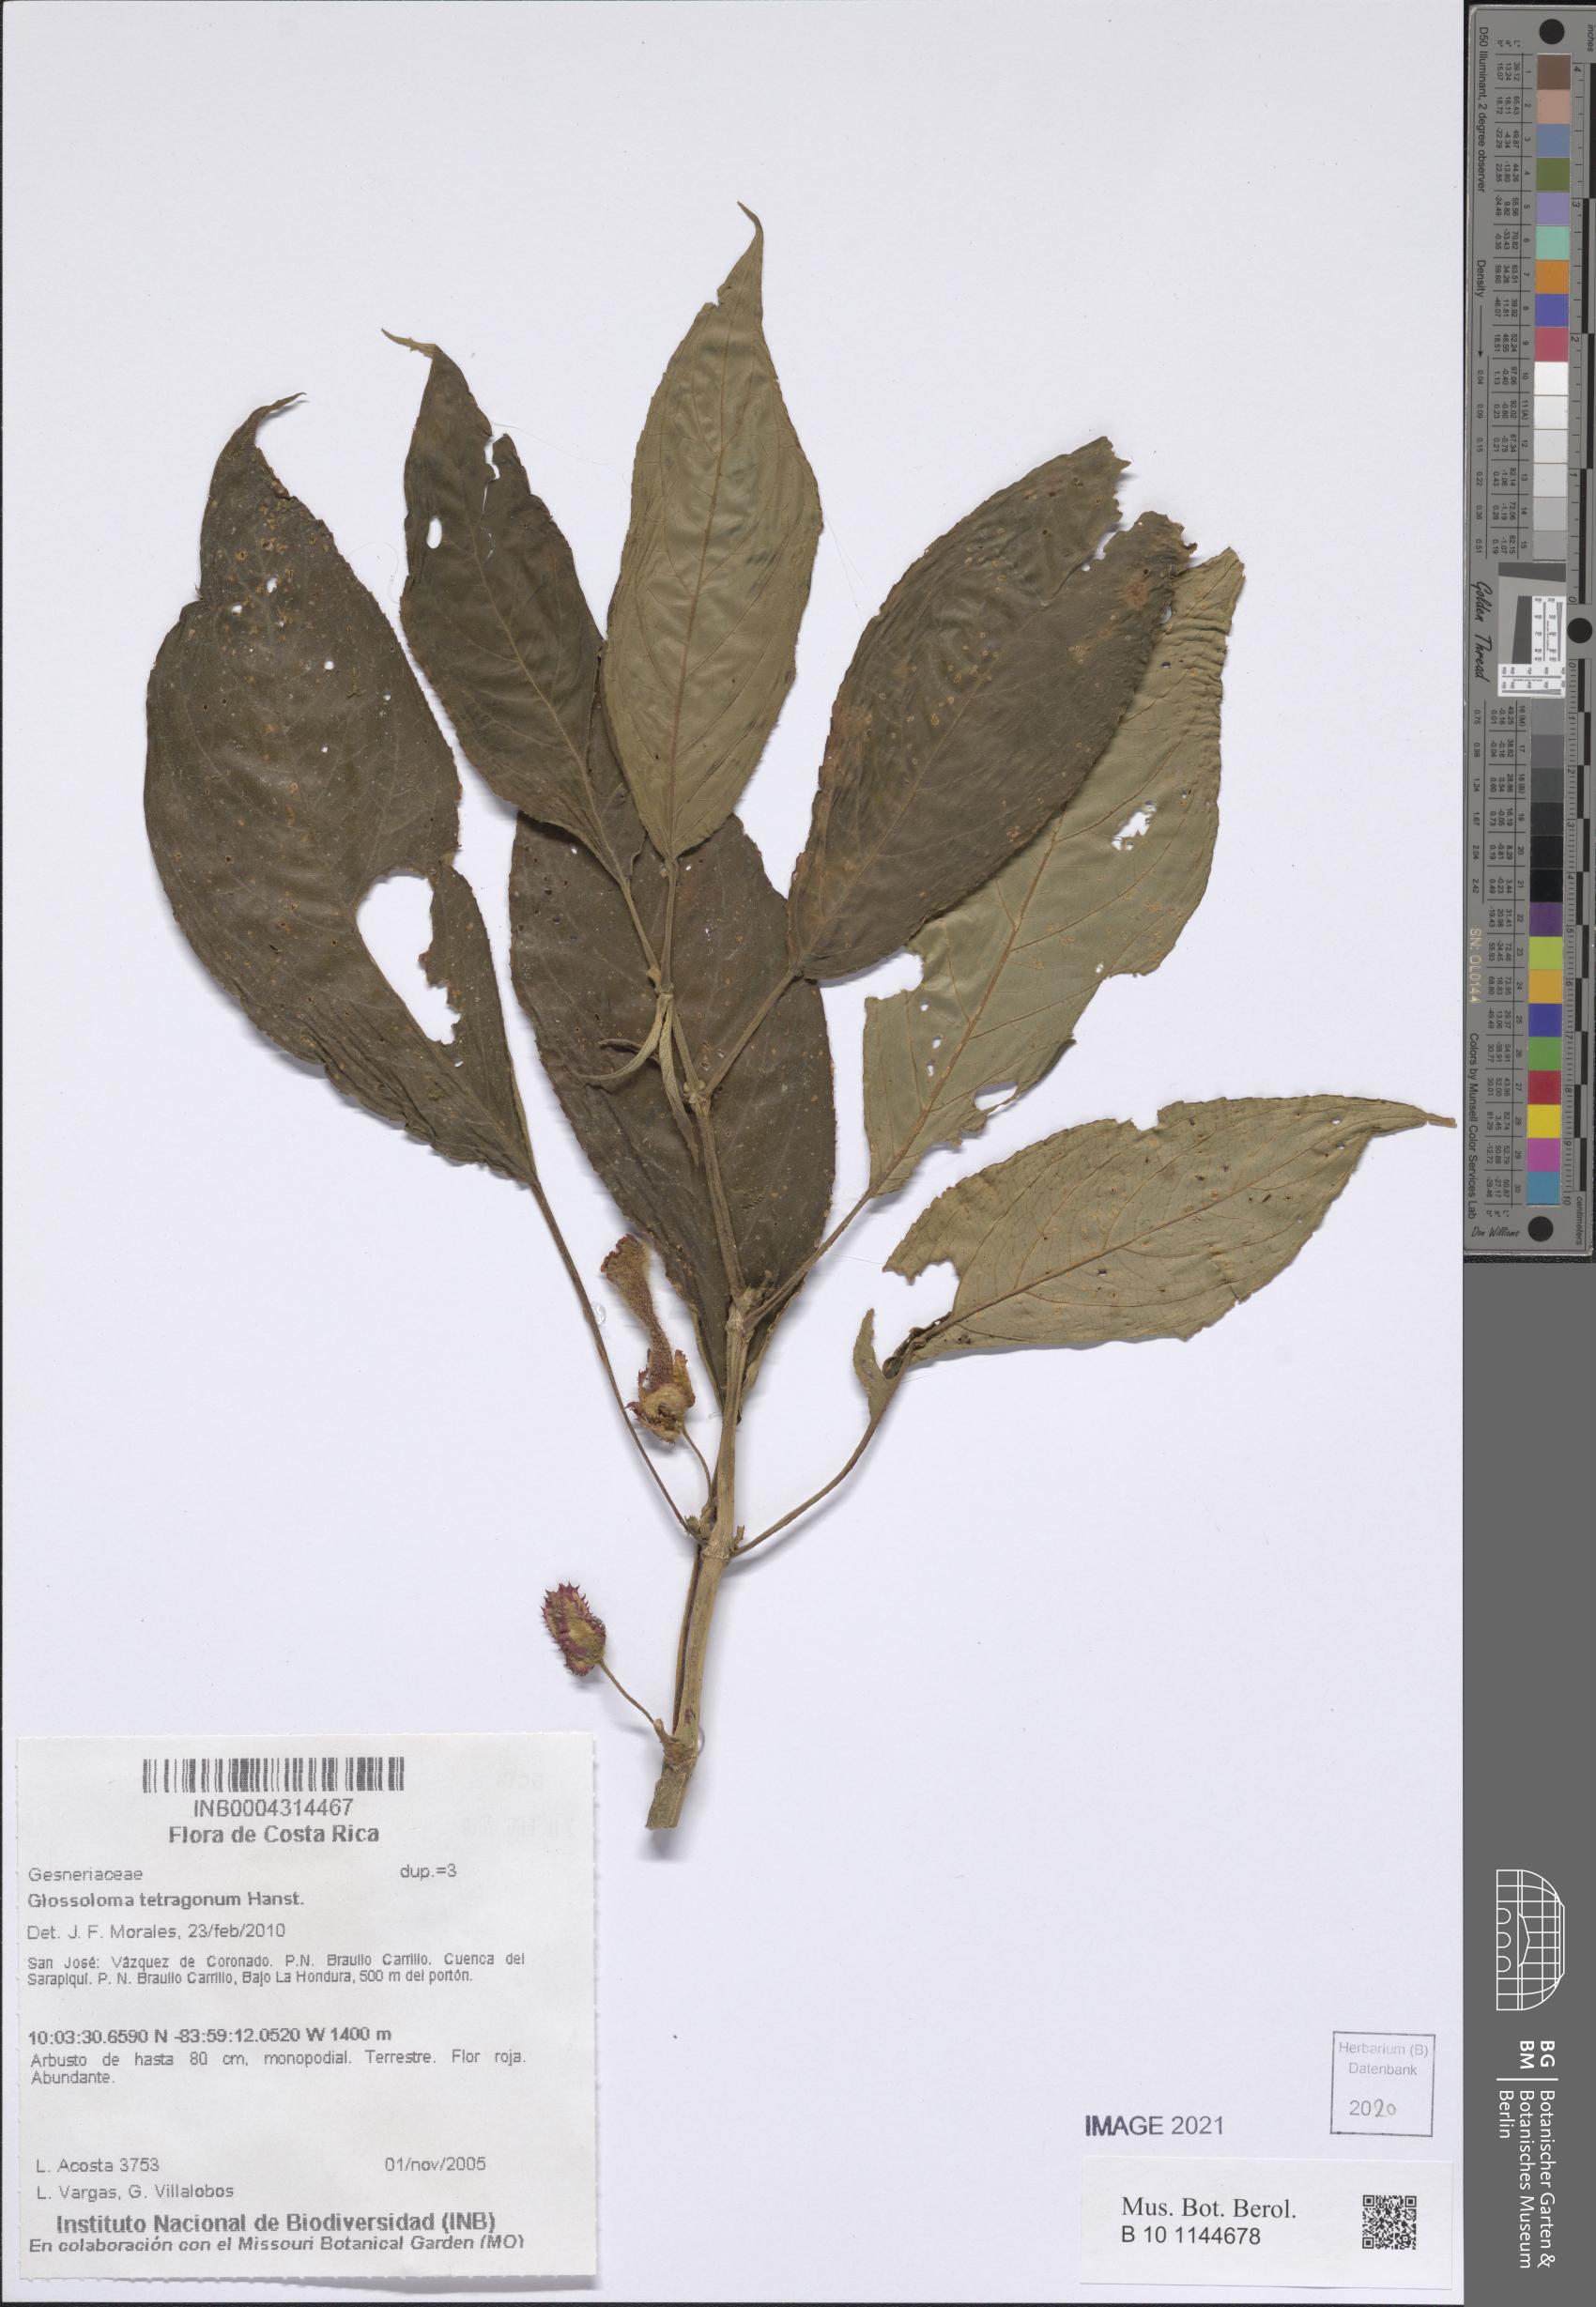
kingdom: Plantae
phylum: Tracheophyta
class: Magnoliopsida
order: Lamiales
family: Gesneriaceae
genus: Glossoloma
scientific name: Glossoloma tetragonum
